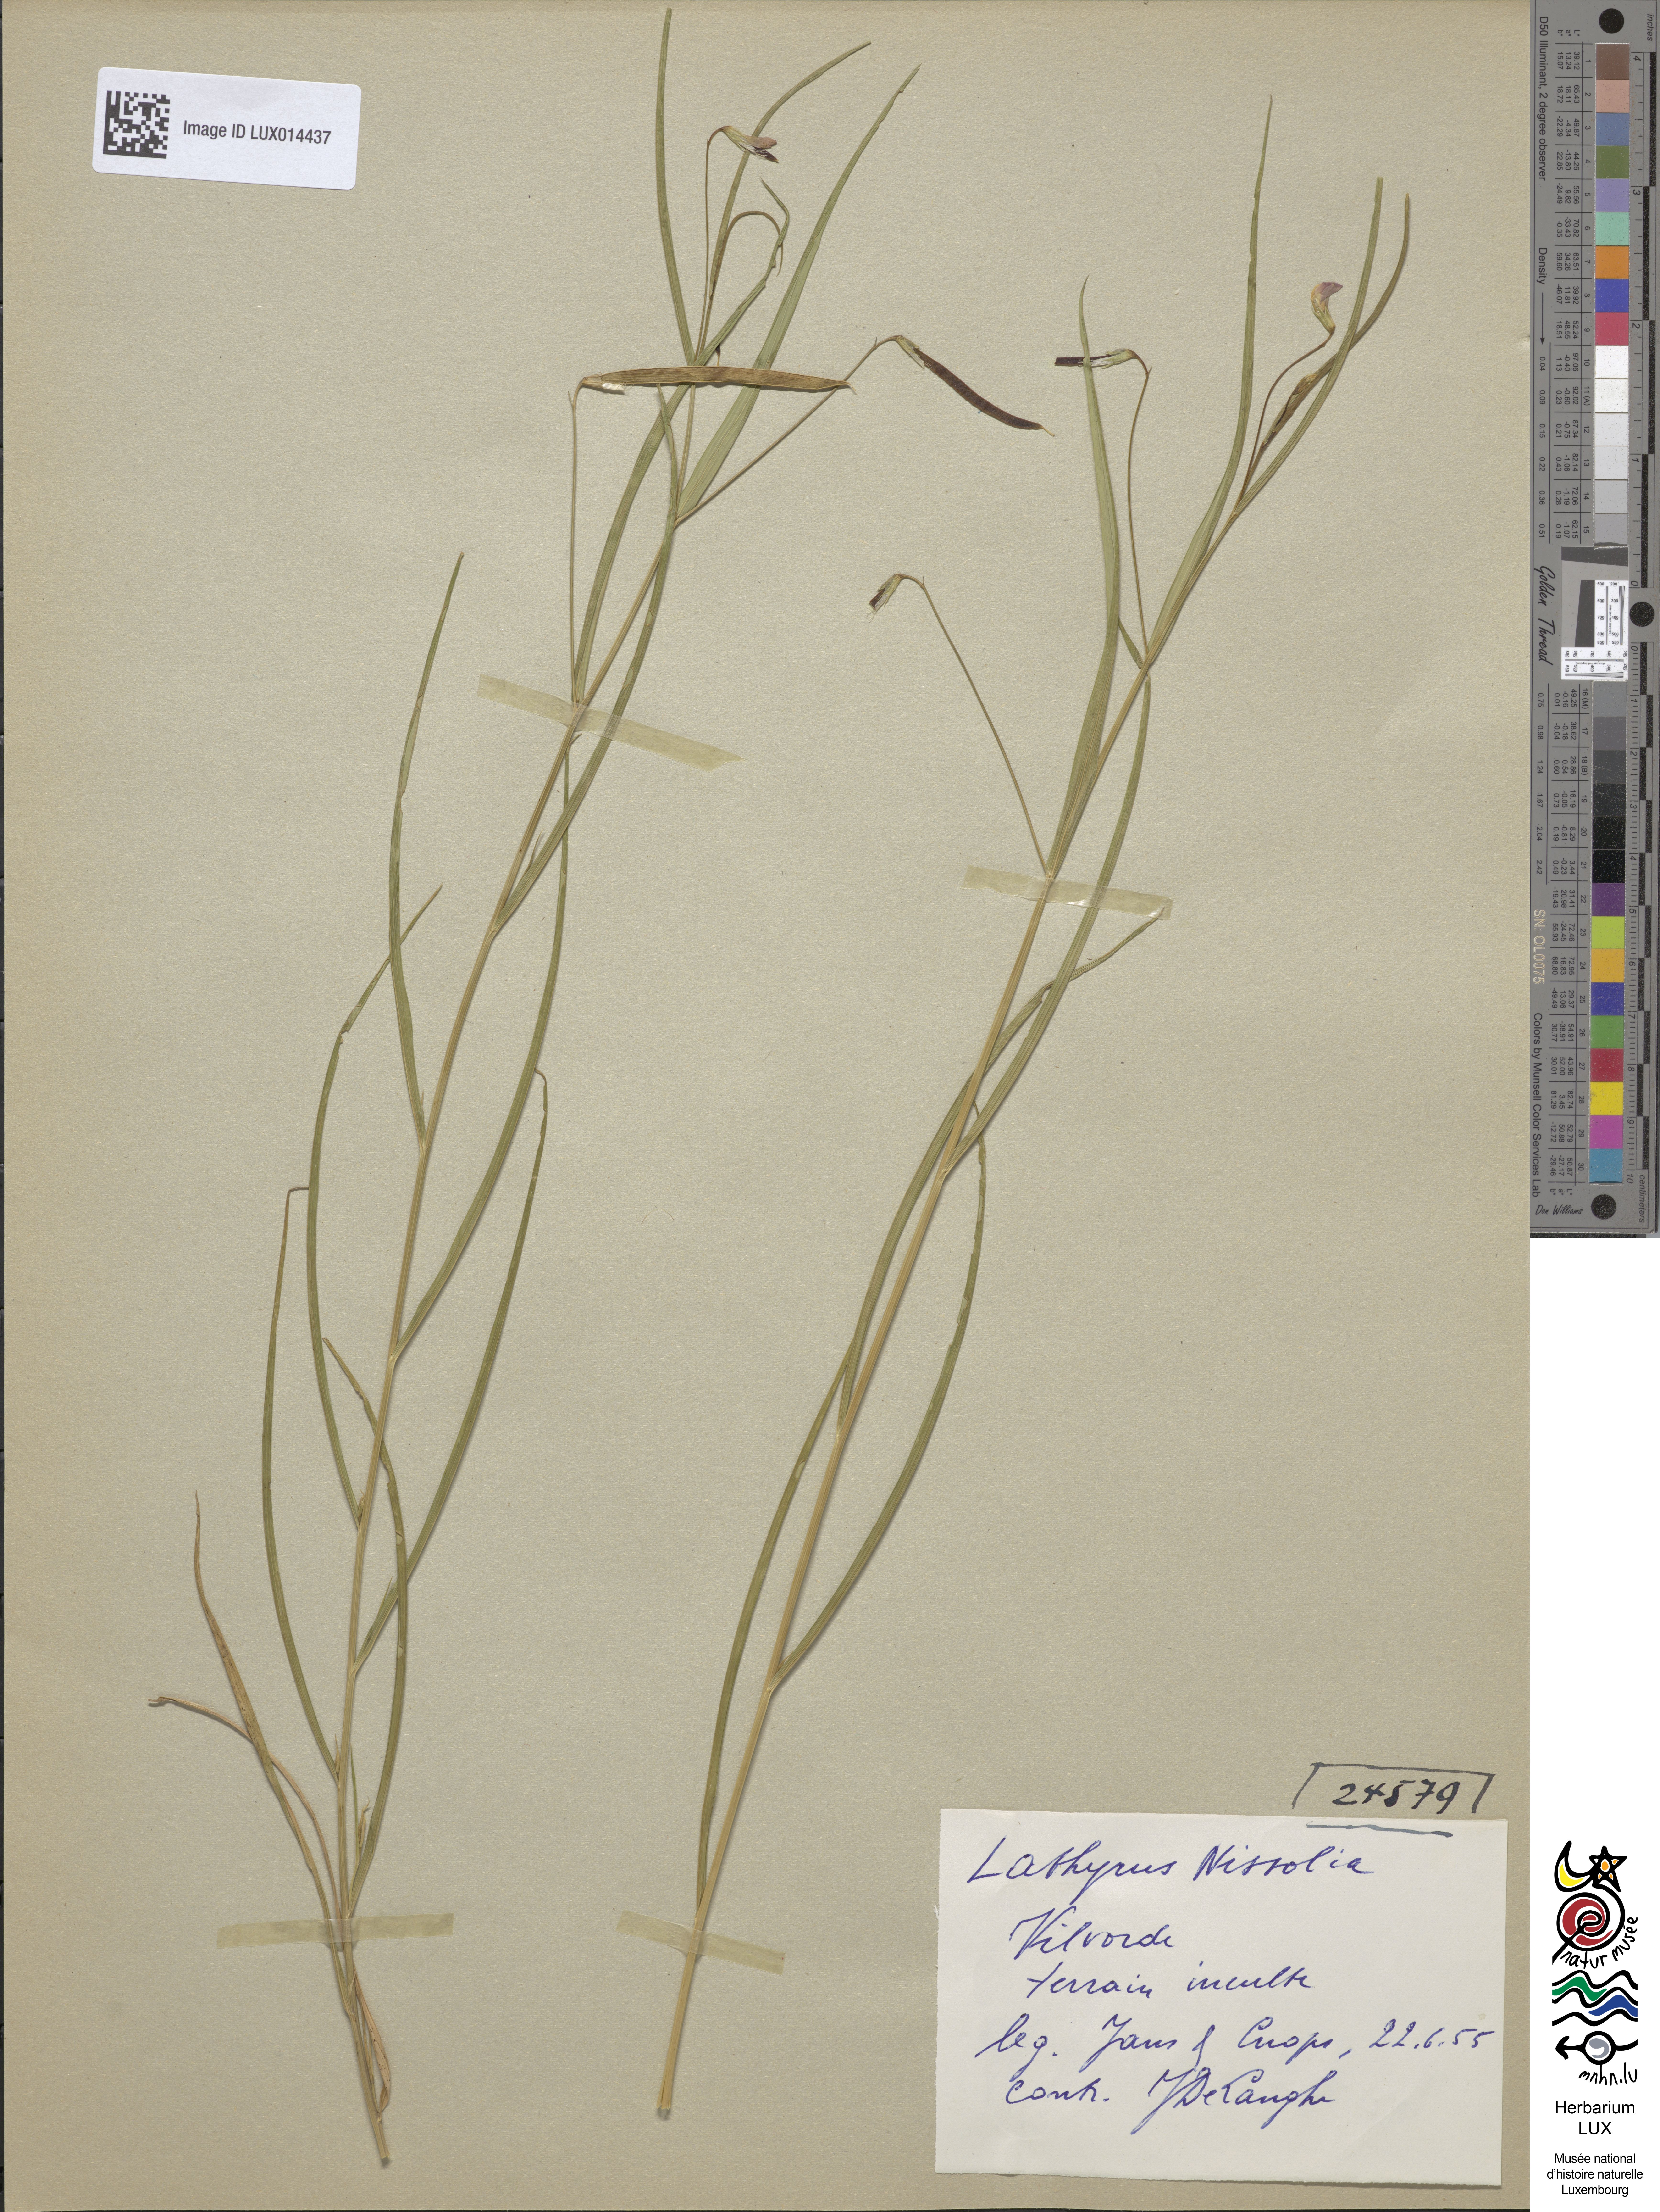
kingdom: Plantae
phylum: Tracheophyta
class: Magnoliopsida
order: Fabales
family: Fabaceae
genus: Lathyrus
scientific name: Lathyrus nissolia
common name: Grass vetchling
